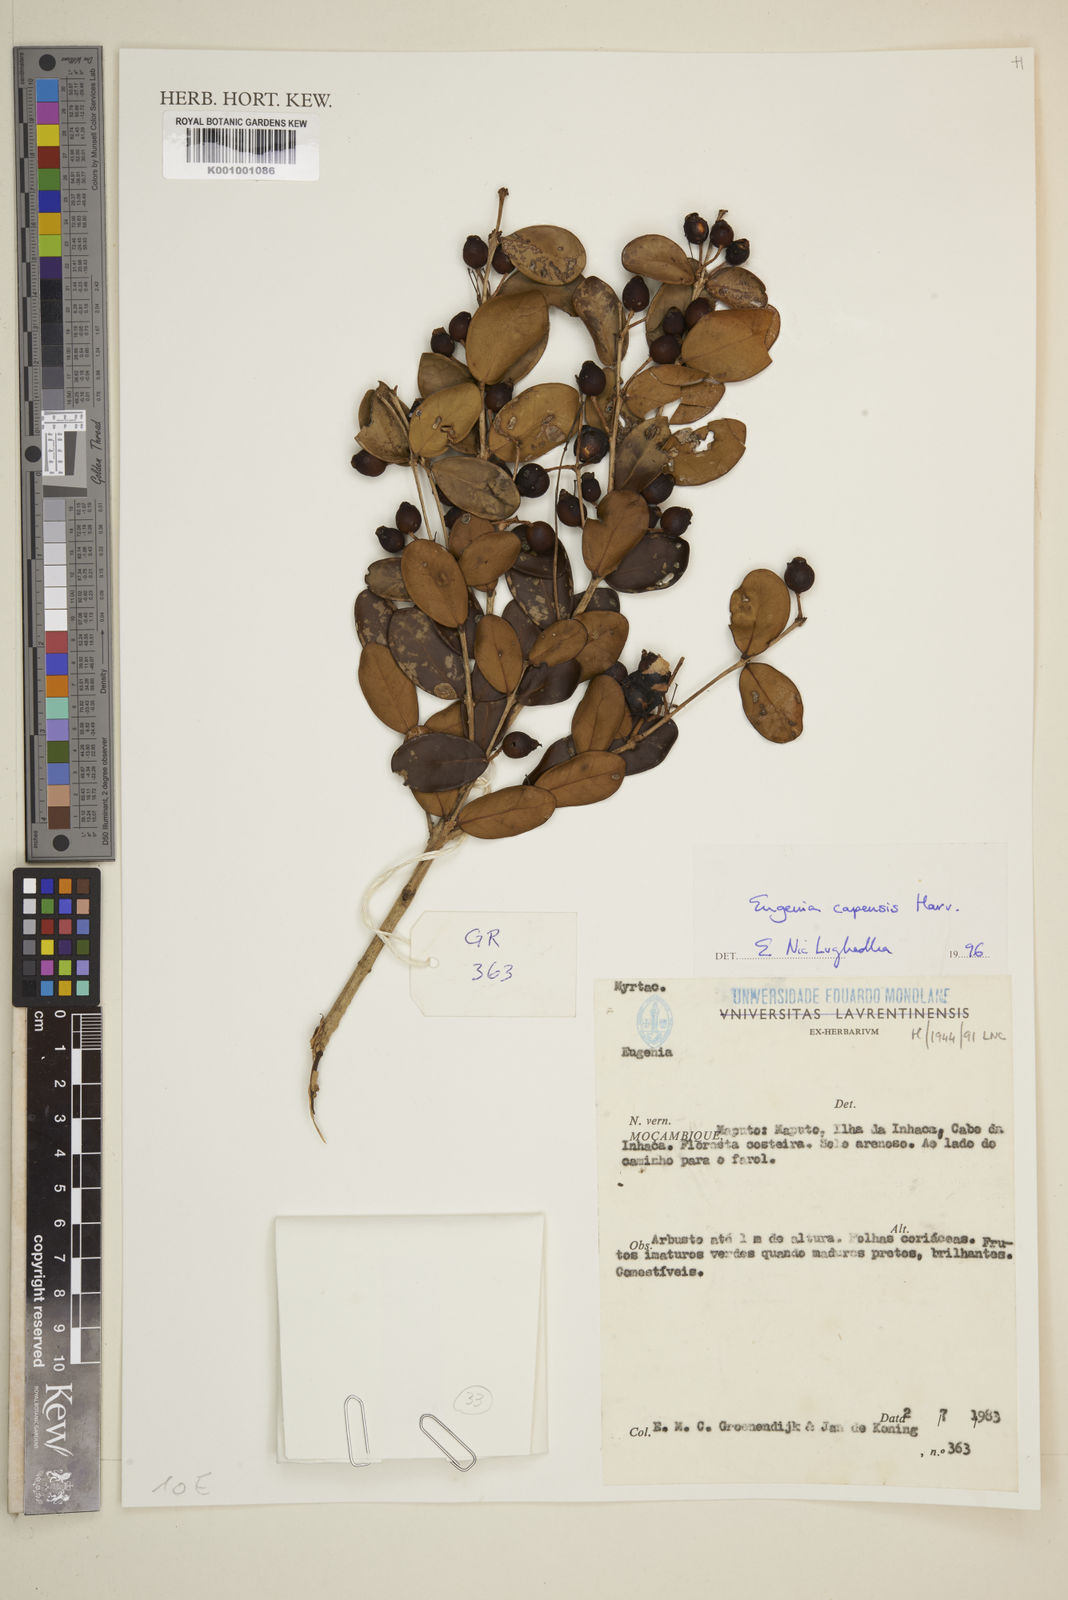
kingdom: Plantae
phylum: Tracheophyta
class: Magnoliopsida
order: Myrtales
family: Myrtaceae
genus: Eugenia
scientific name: Eugenia capensis
